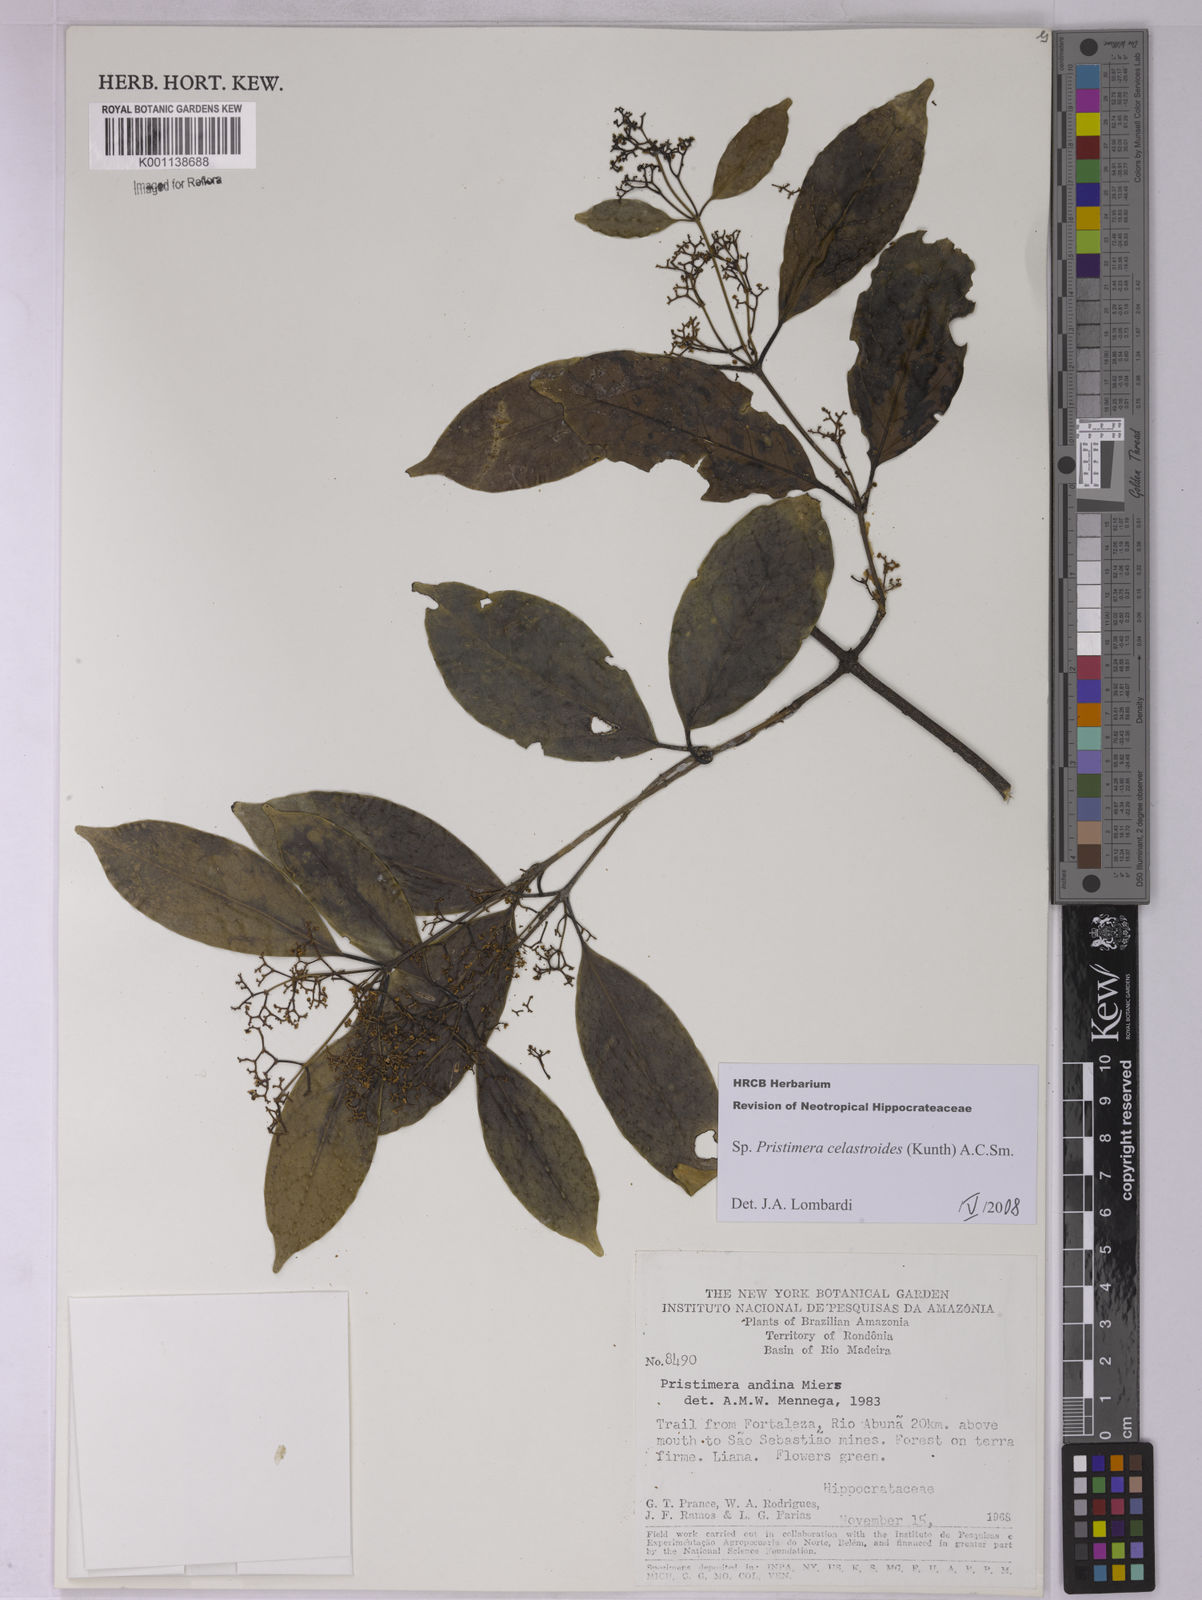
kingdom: Plantae
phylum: Tracheophyta
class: Magnoliopsida
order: Celastrales
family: Celastraceae
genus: Pristimera
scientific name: Pristimera celastroides
